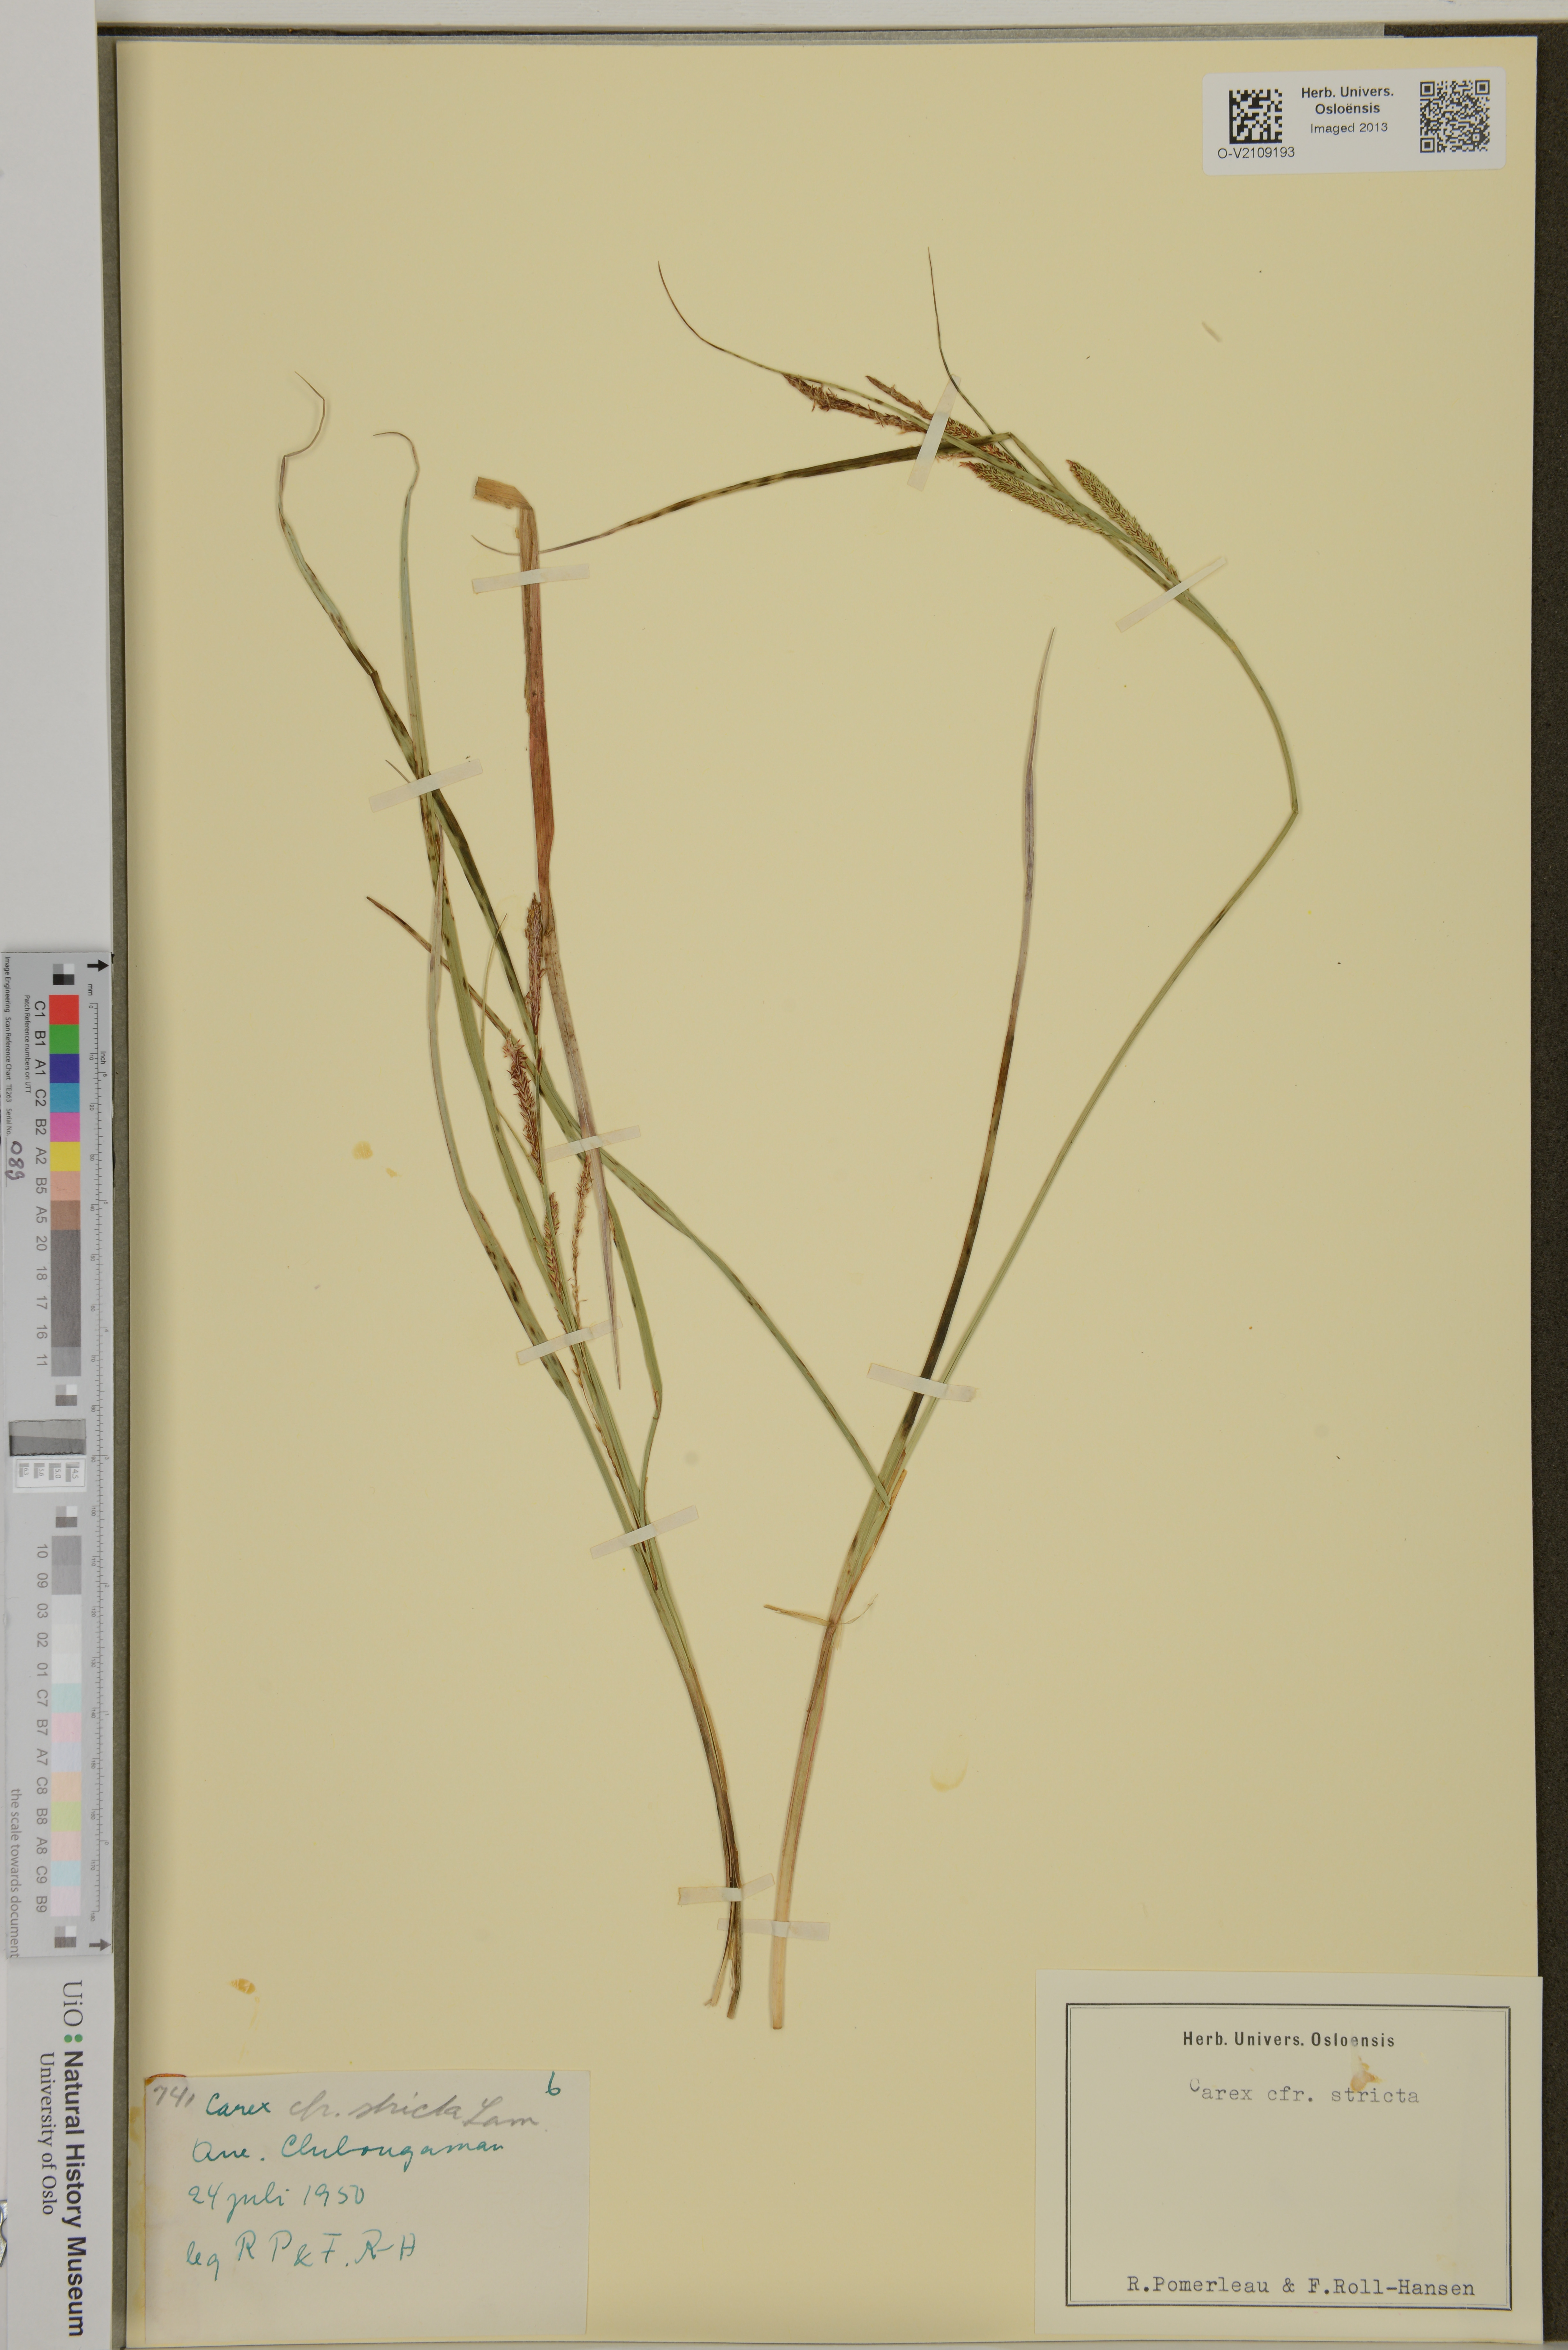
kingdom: Plantae
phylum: Tracheophyta
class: Liliopsida
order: Poales
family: Cyperaceae
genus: Carex
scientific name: Carex elata
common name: Tufted sedge
